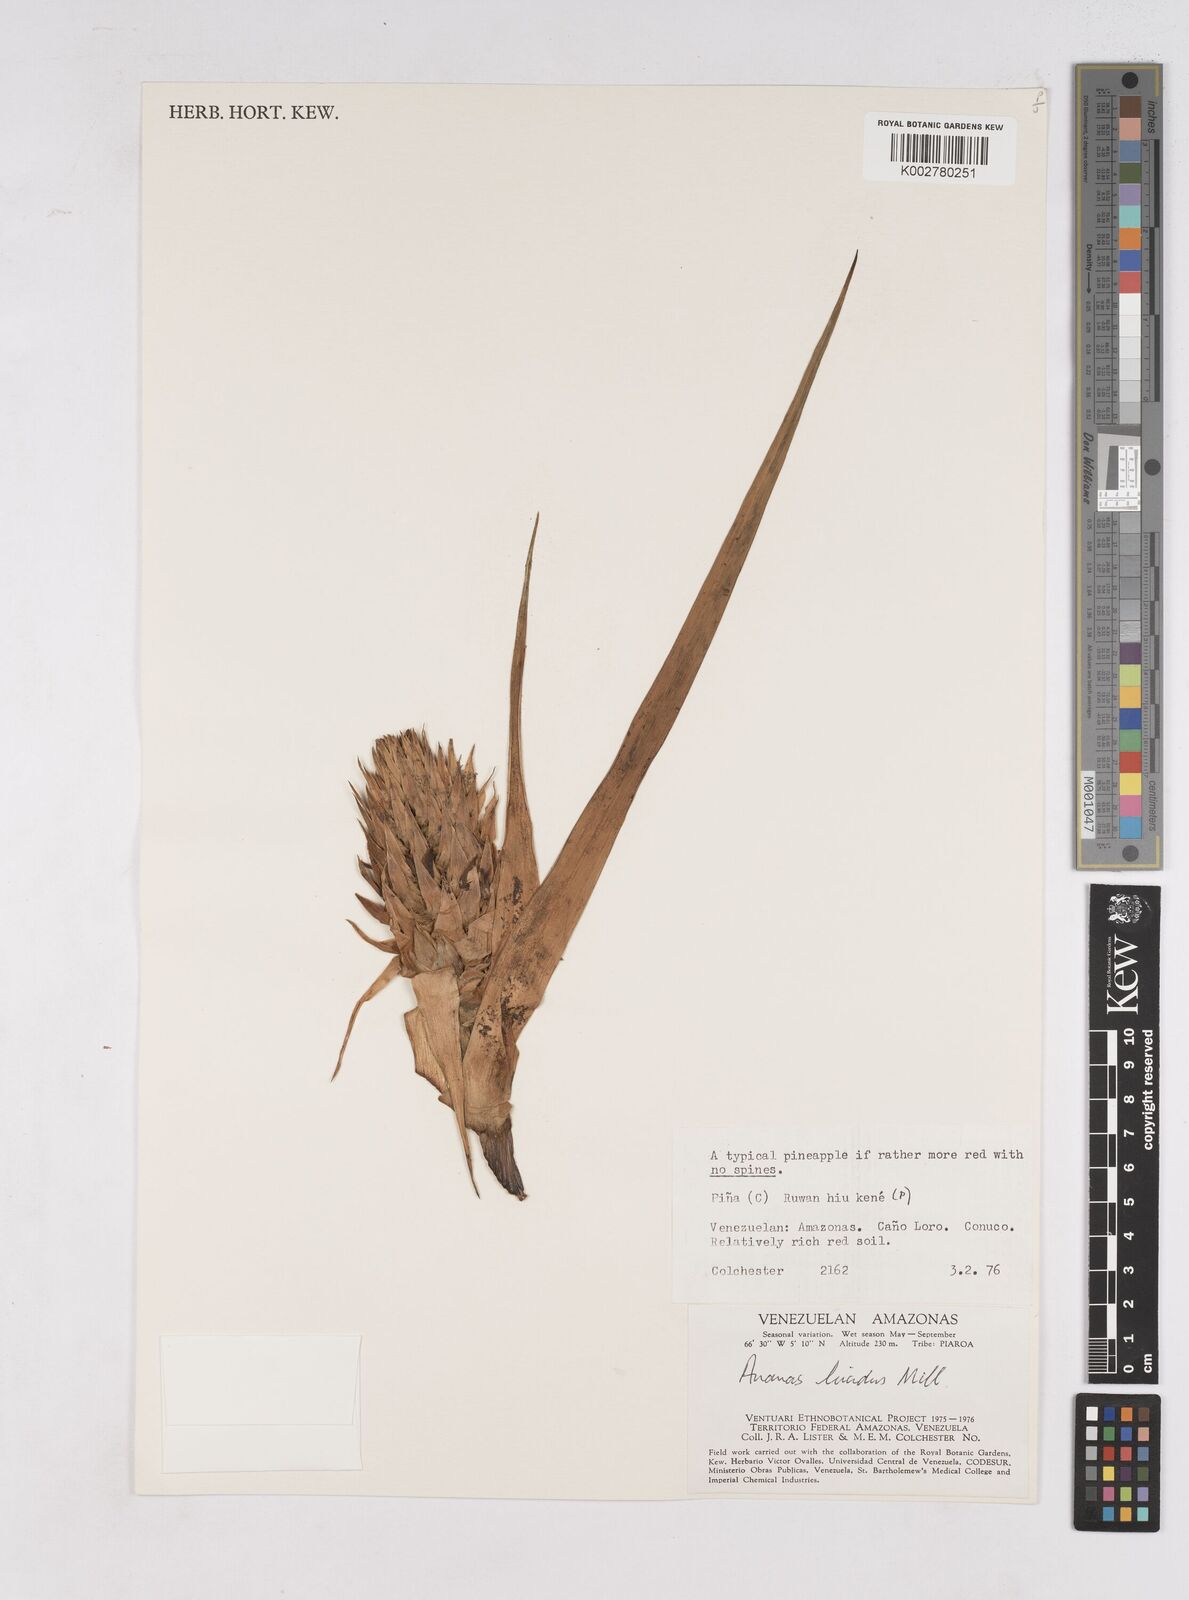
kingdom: Plantae
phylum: Tracheophyta
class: Liliopsida
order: Poales
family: Bromeliaceae
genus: Ananas
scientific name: Ananas comosus
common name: Pineapple
